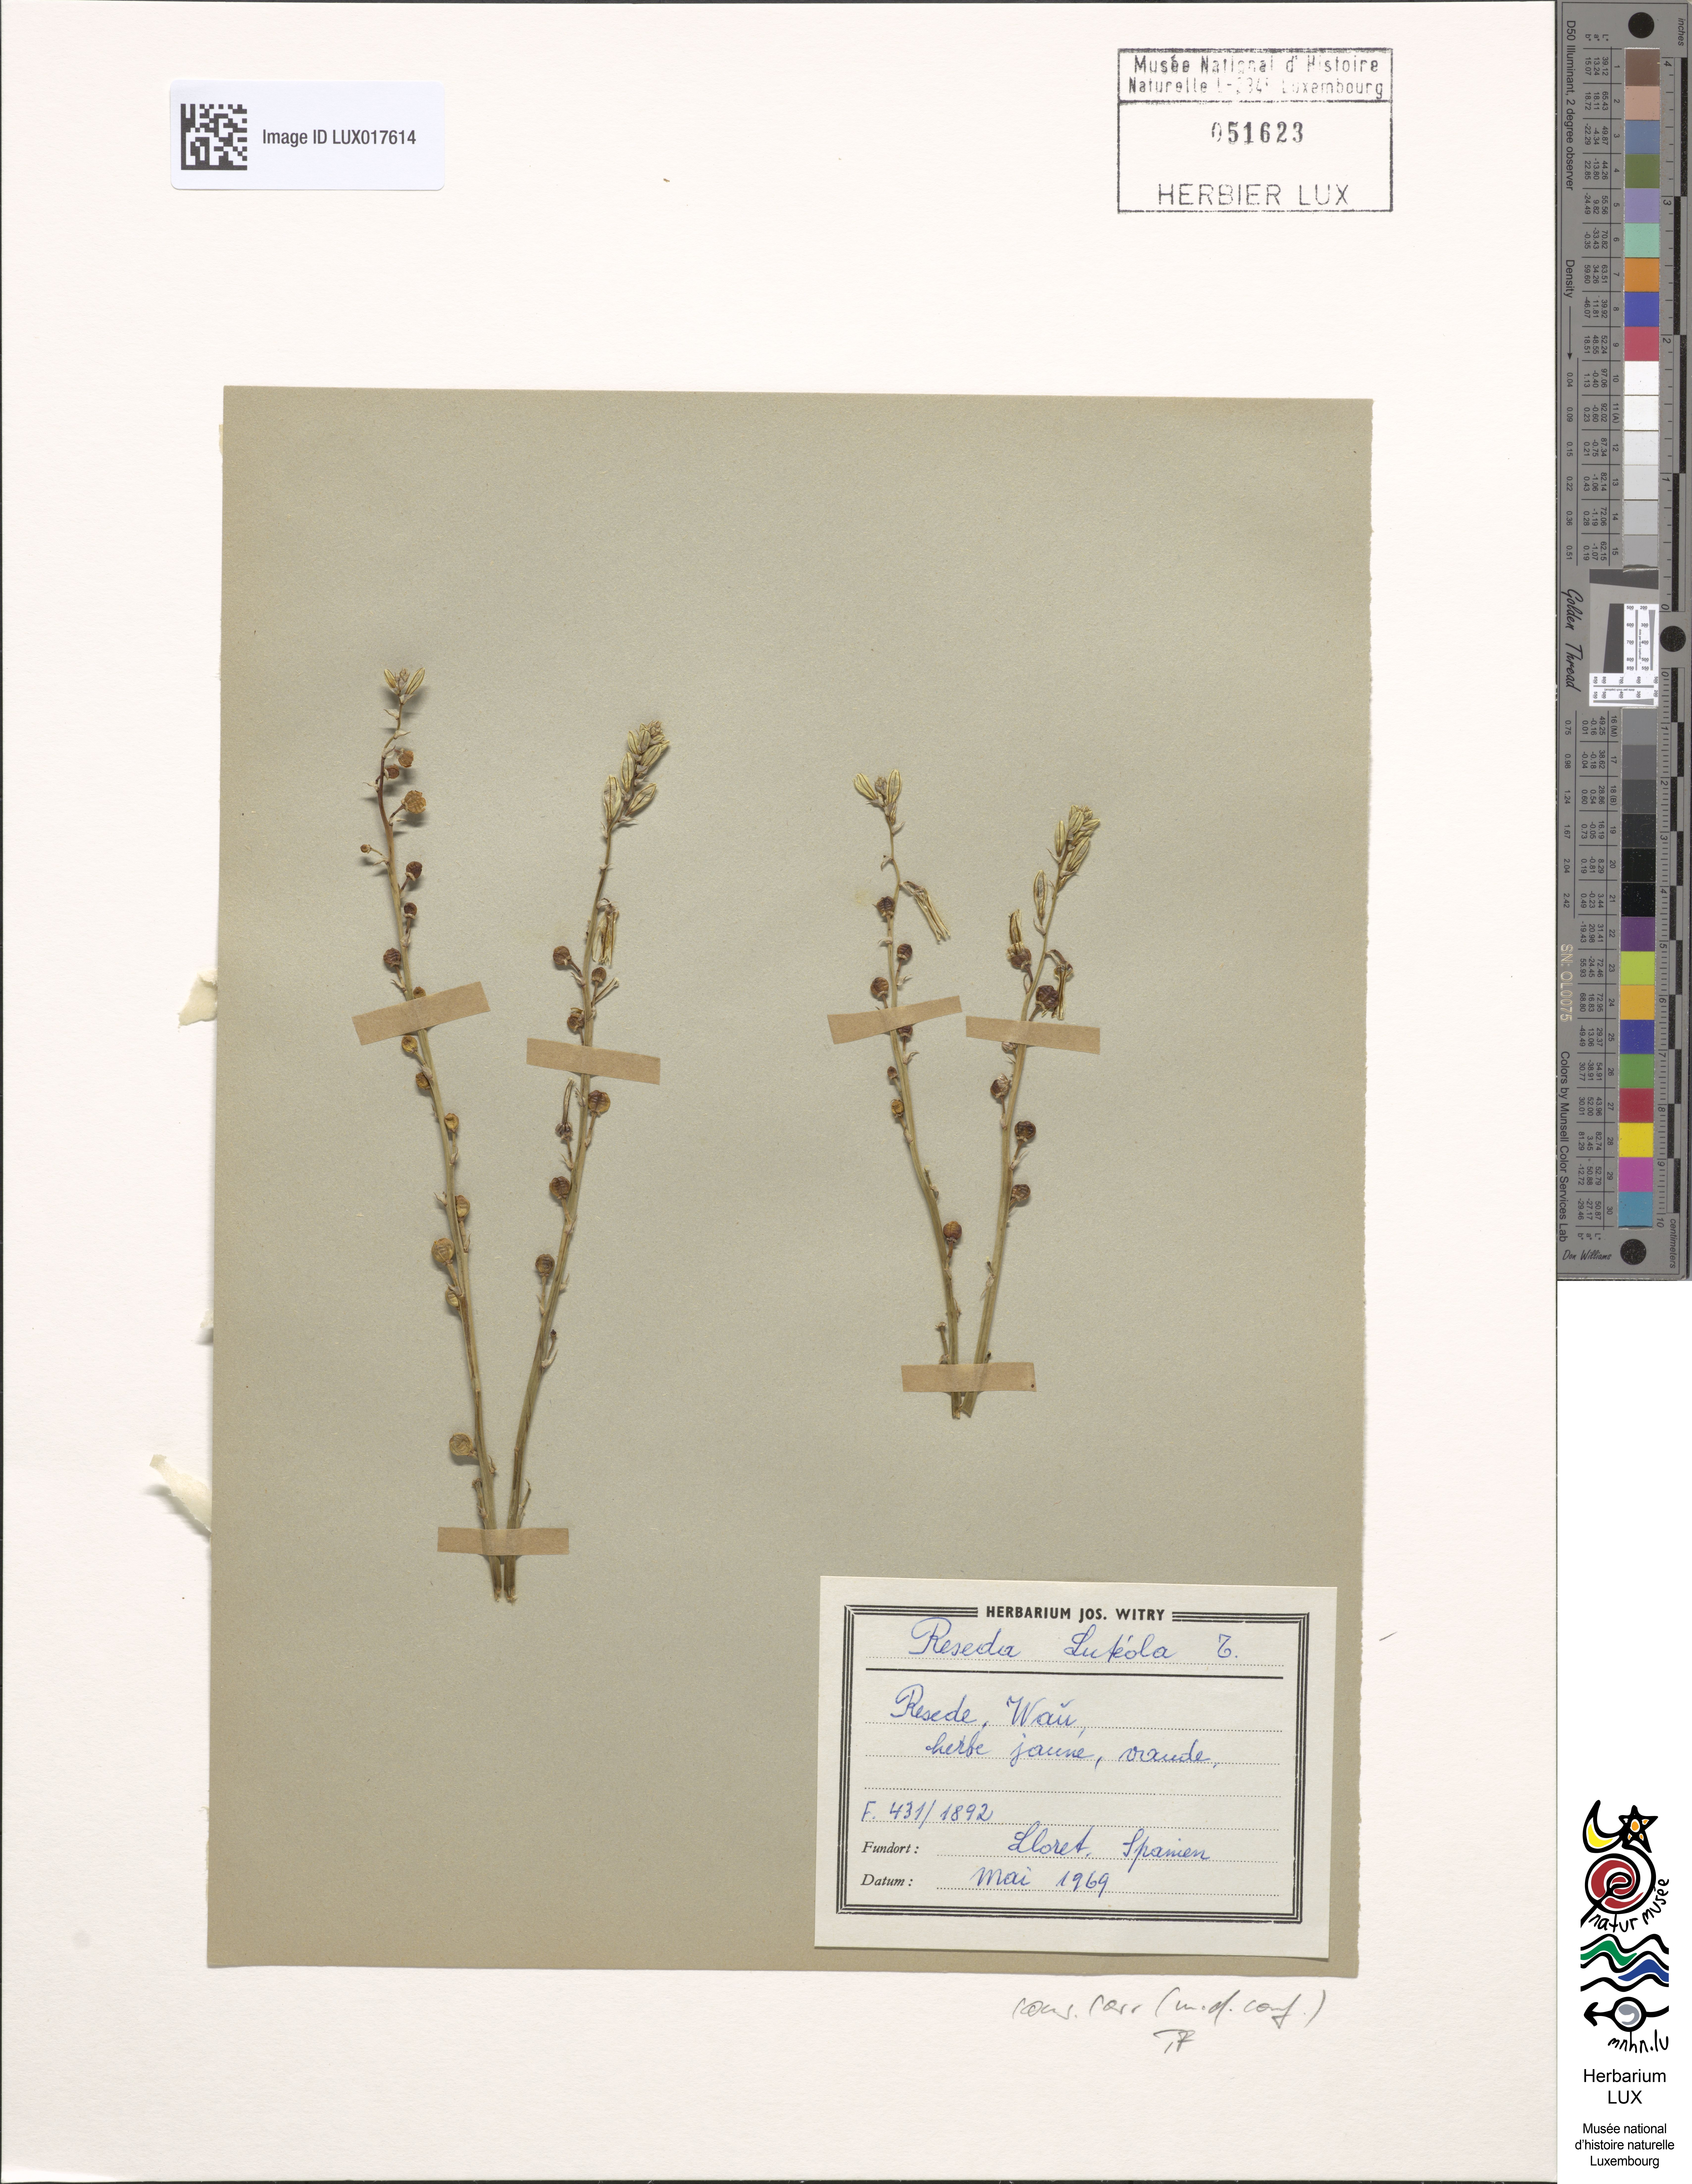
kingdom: Plantae
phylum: Tracheophyta
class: Magnoliopsida
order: Brassicales
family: Resedaceae
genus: Reseda
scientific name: Reseda luteola
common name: Weld
